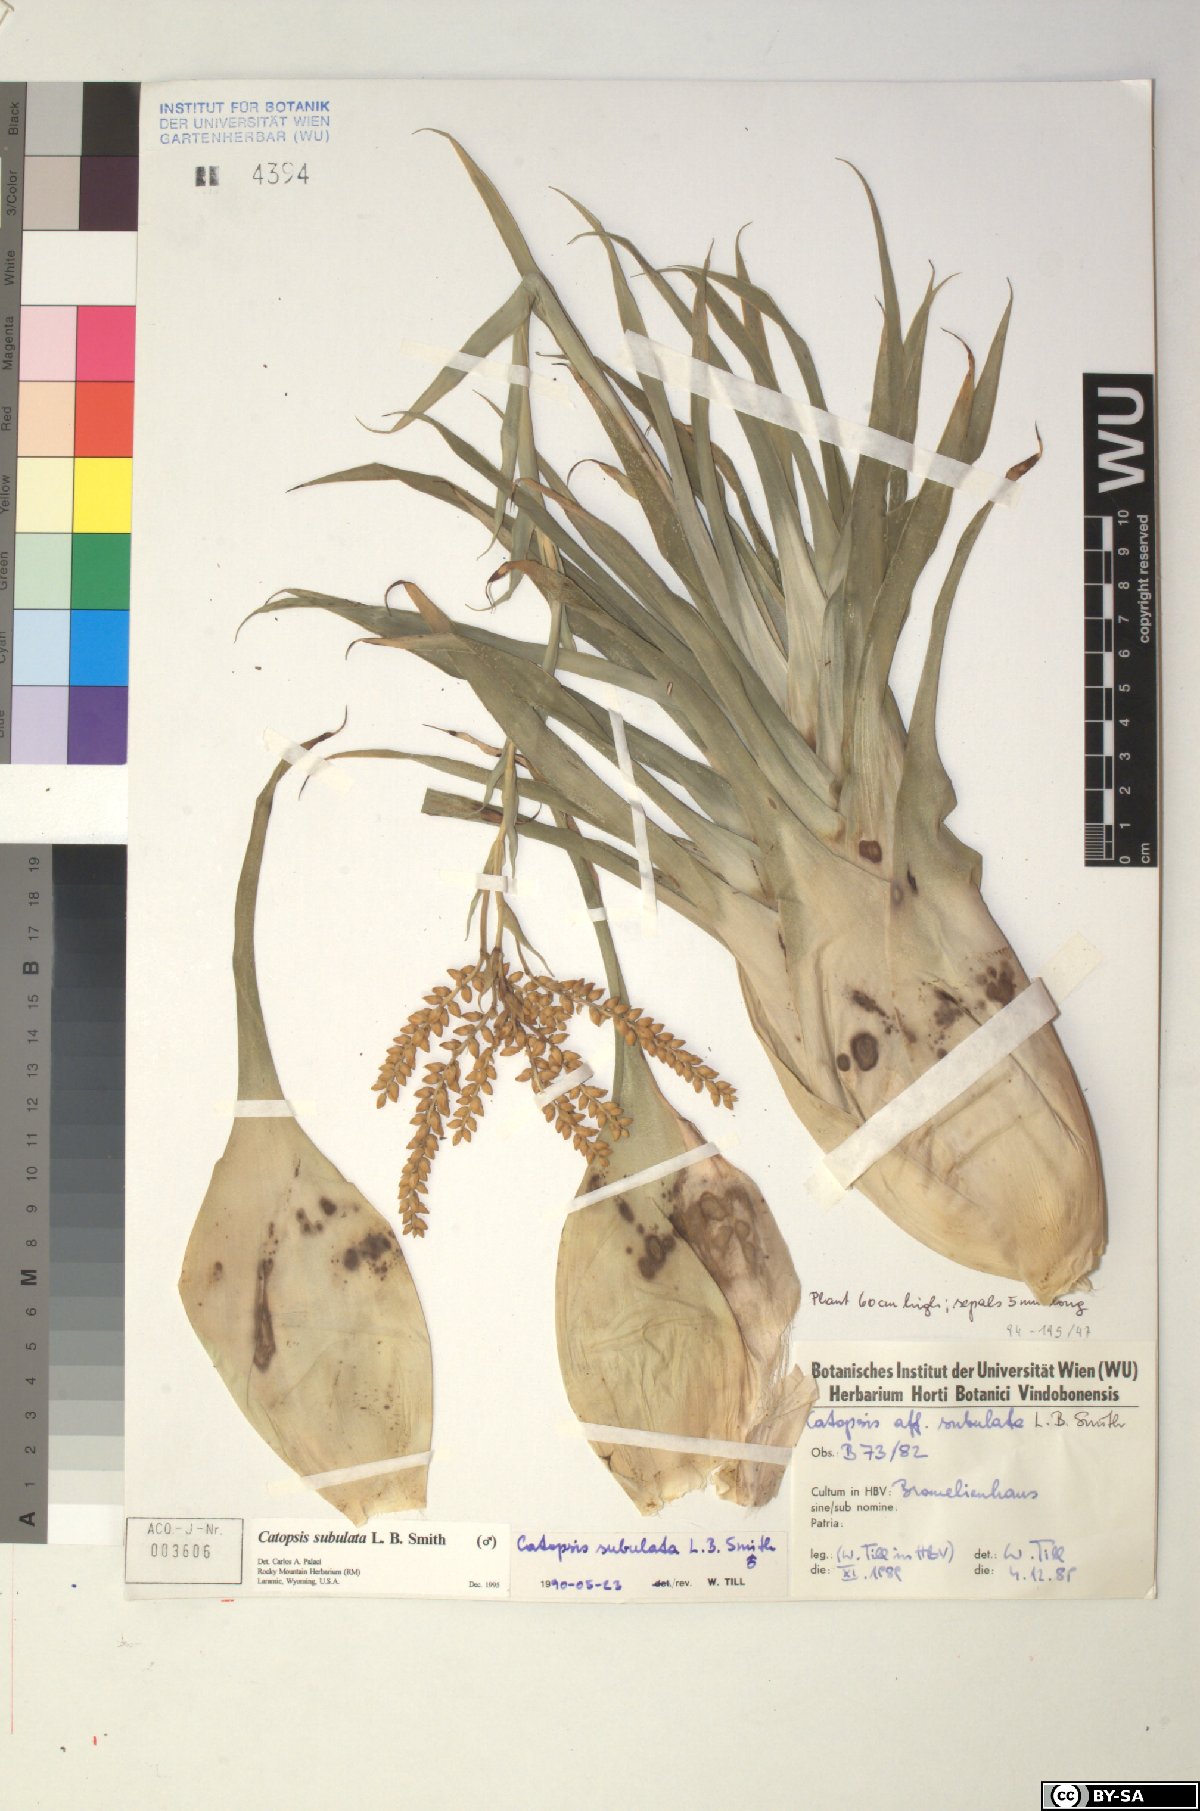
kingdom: Plantae
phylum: Tracheophyta
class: Liliopsida
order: Poales
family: Bromeliaceae
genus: Catopsis
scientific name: Catopsis subulata
